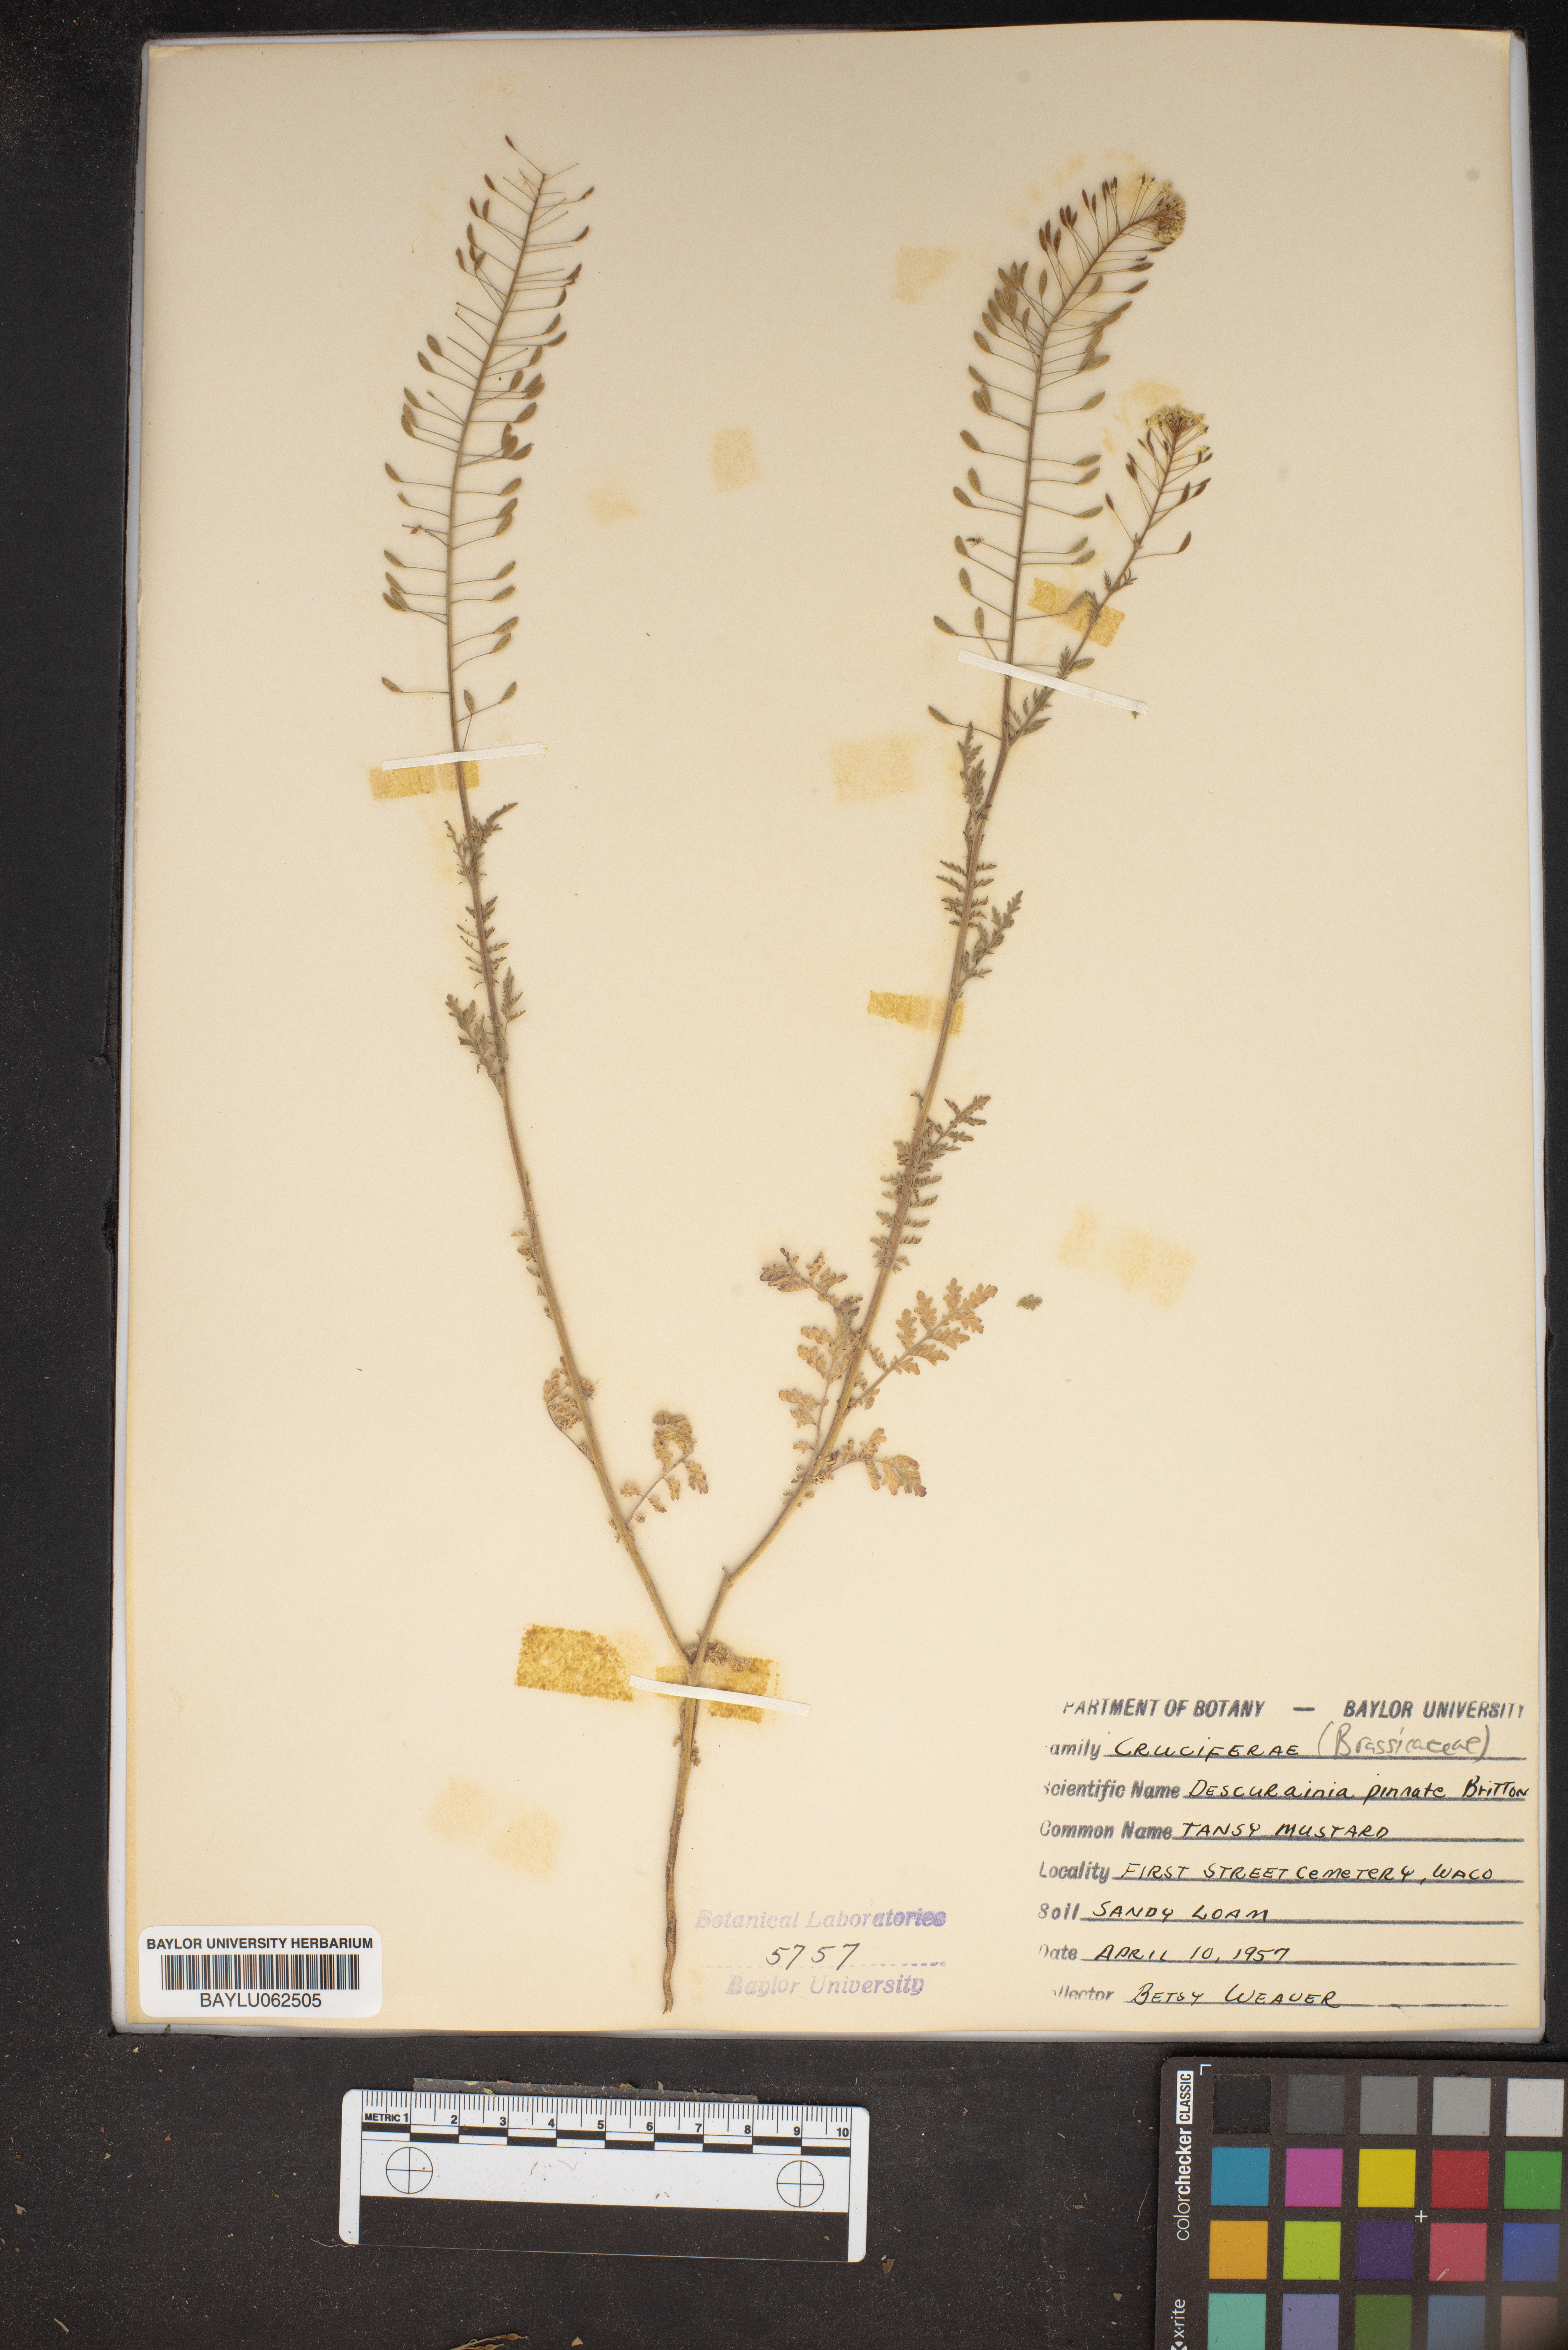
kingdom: Plantae
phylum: Tracheophyta
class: Magnoliopsida
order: Brassicales
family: Brassicaceae
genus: Descurainia
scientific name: Descurainia pinnata
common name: Western tansy mustard
